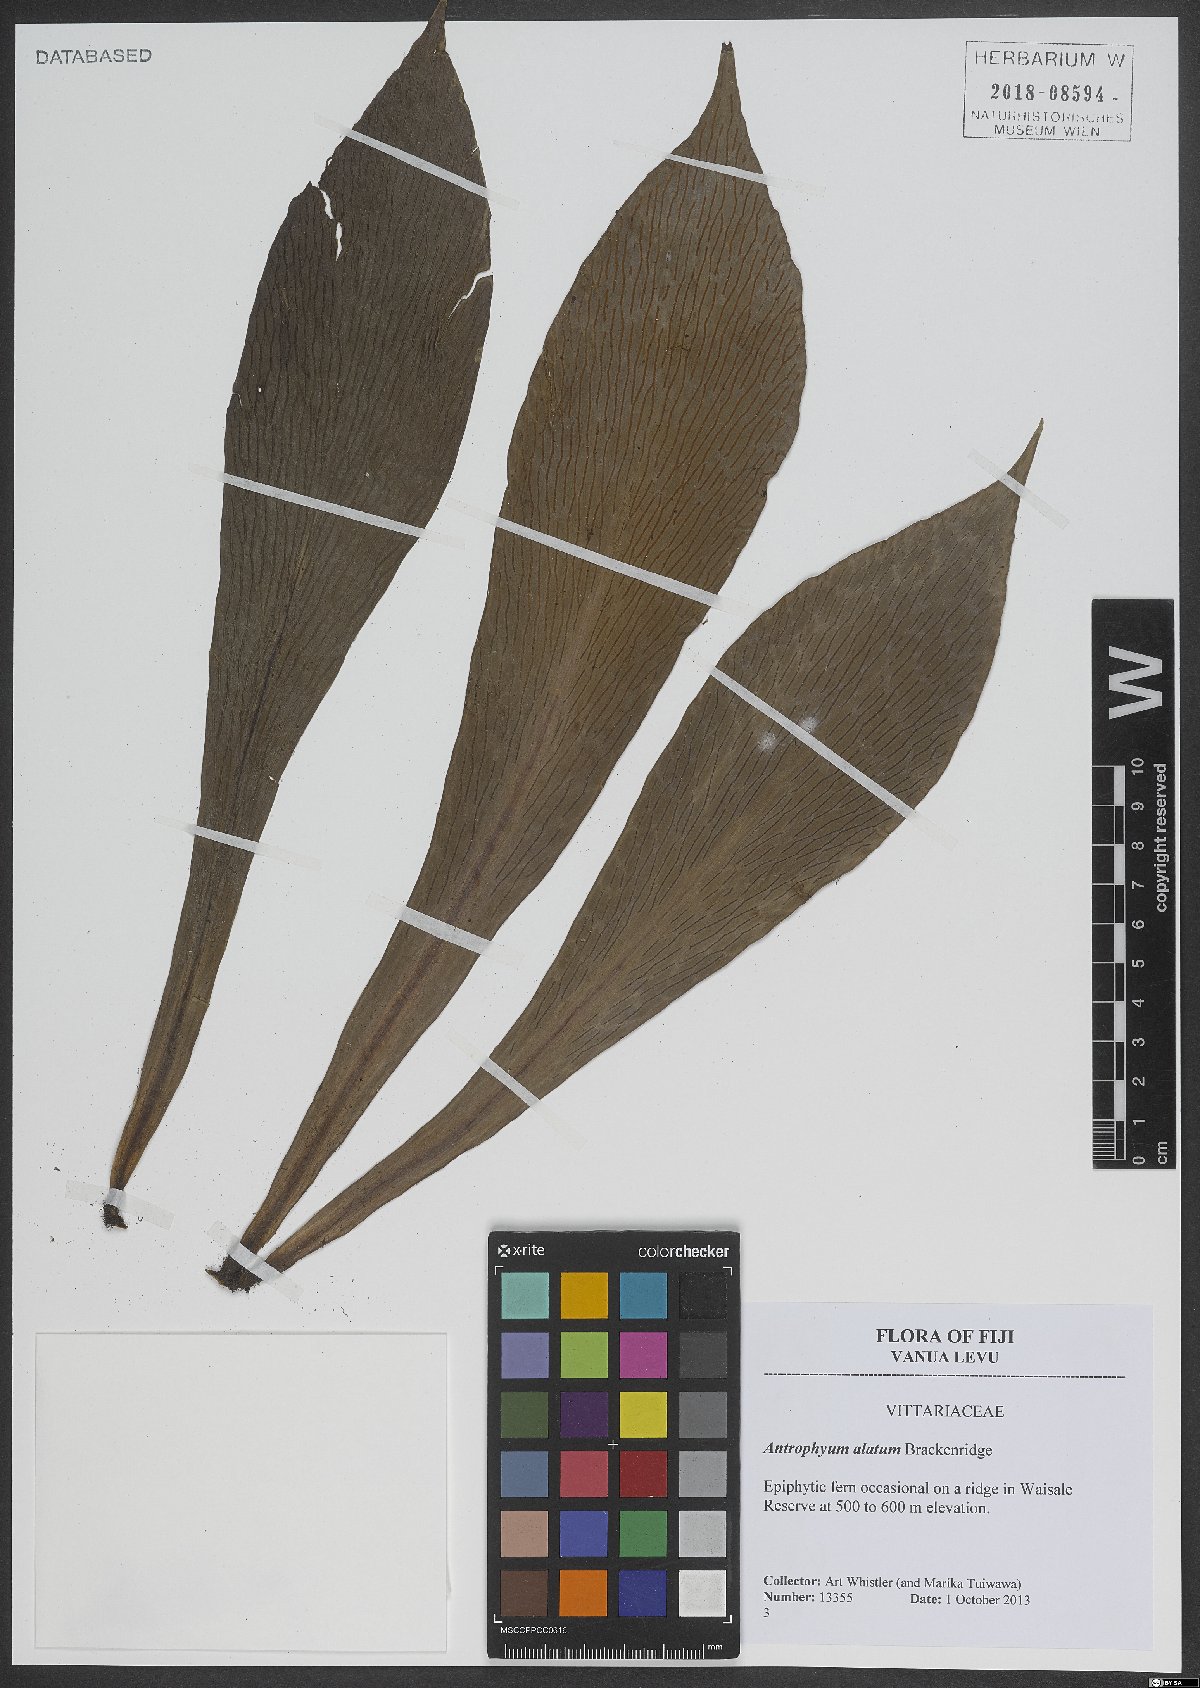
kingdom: Plantae
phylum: Tracheophyta
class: Polypodiopsida
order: Polypodiales
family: Pteridaceae
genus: Antrophyum
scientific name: Antrophyum callifolium
